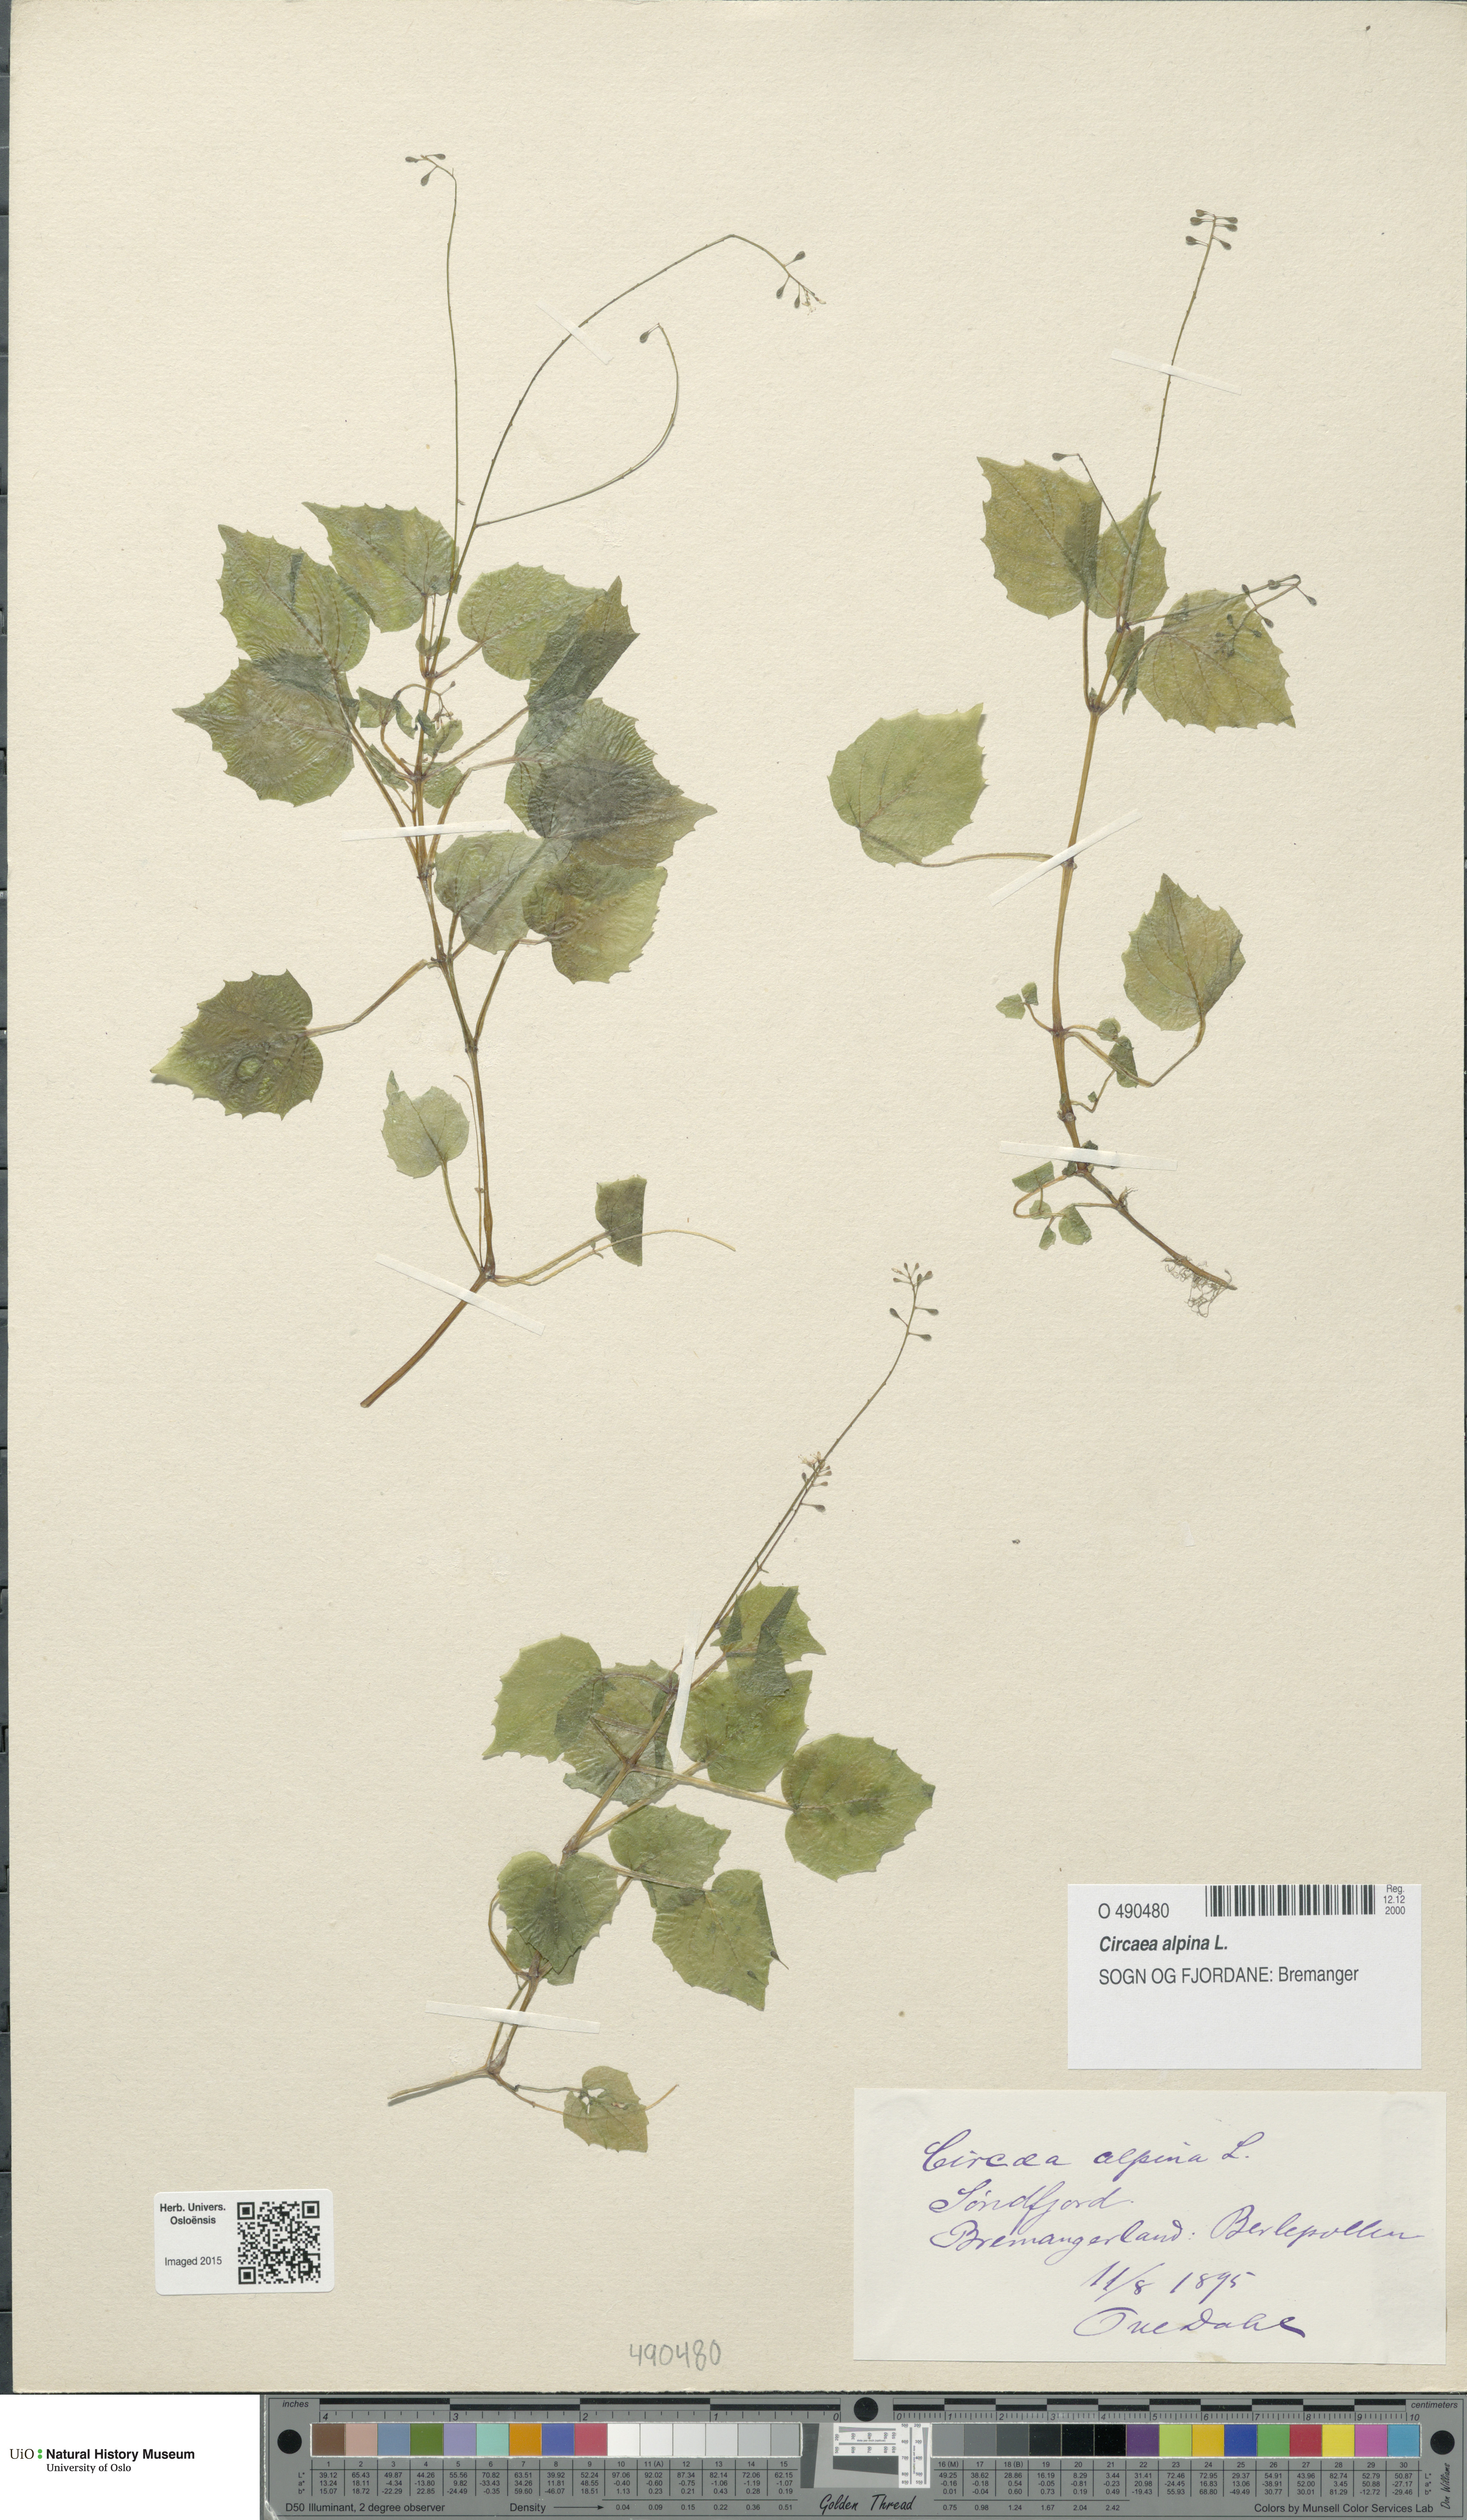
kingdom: Plantae
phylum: Tracheophyta
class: Magnoliopsida
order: Myrtales
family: Onagraceae
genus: Circaea
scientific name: Circaea alpina
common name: Alpine enchanter's-nightshade
